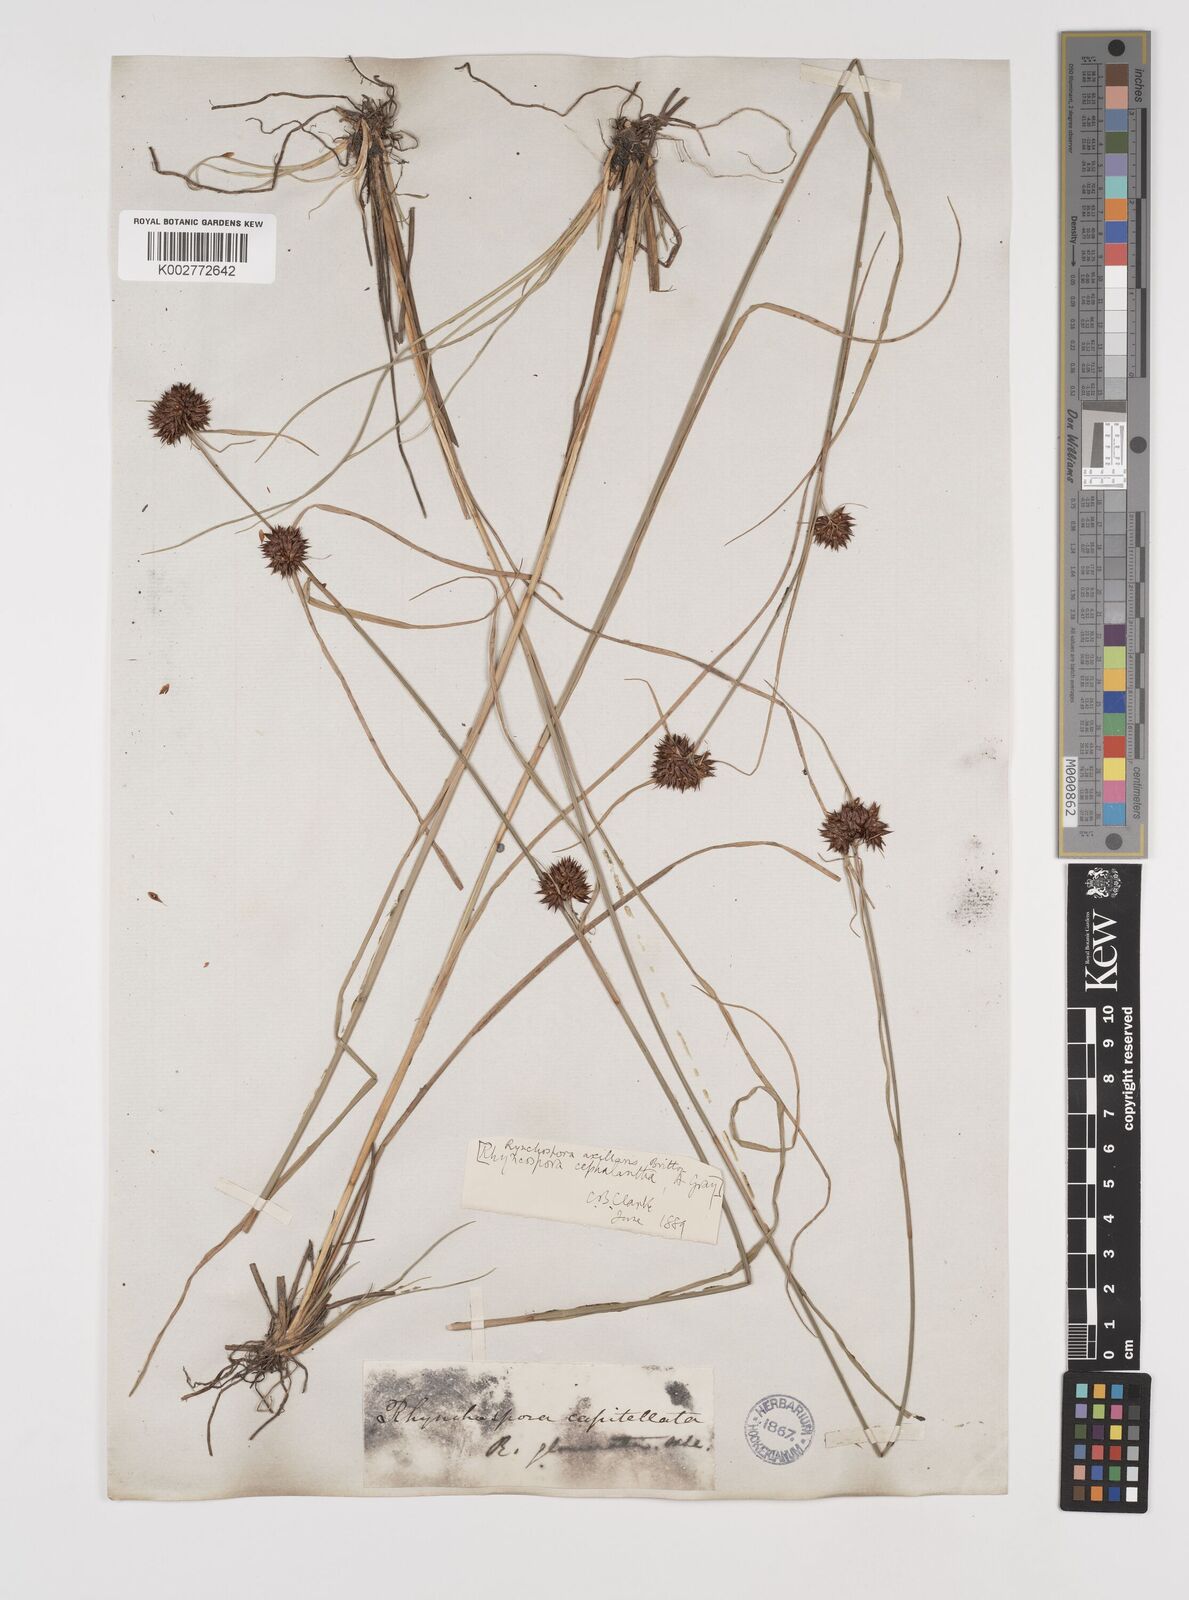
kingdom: Plantae
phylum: Tracheophyta
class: Liliopsida
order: Poales
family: Cyperaceae
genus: Rhynchospora
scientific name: Rhynchospora glomerata
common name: Cluster beak sedge
